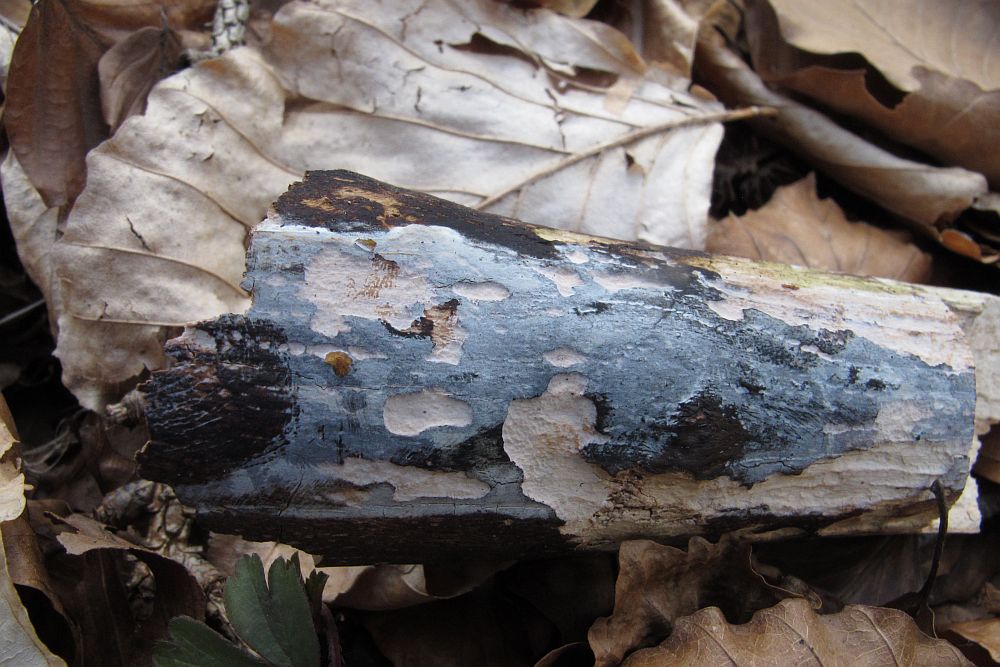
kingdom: Fungi
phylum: Basidiomycota
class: Tremellomycetes
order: Tremellales
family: Exidiaceae
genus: Exidiopsis
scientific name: Exidiopsis effusa
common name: smuk bævrehinde
